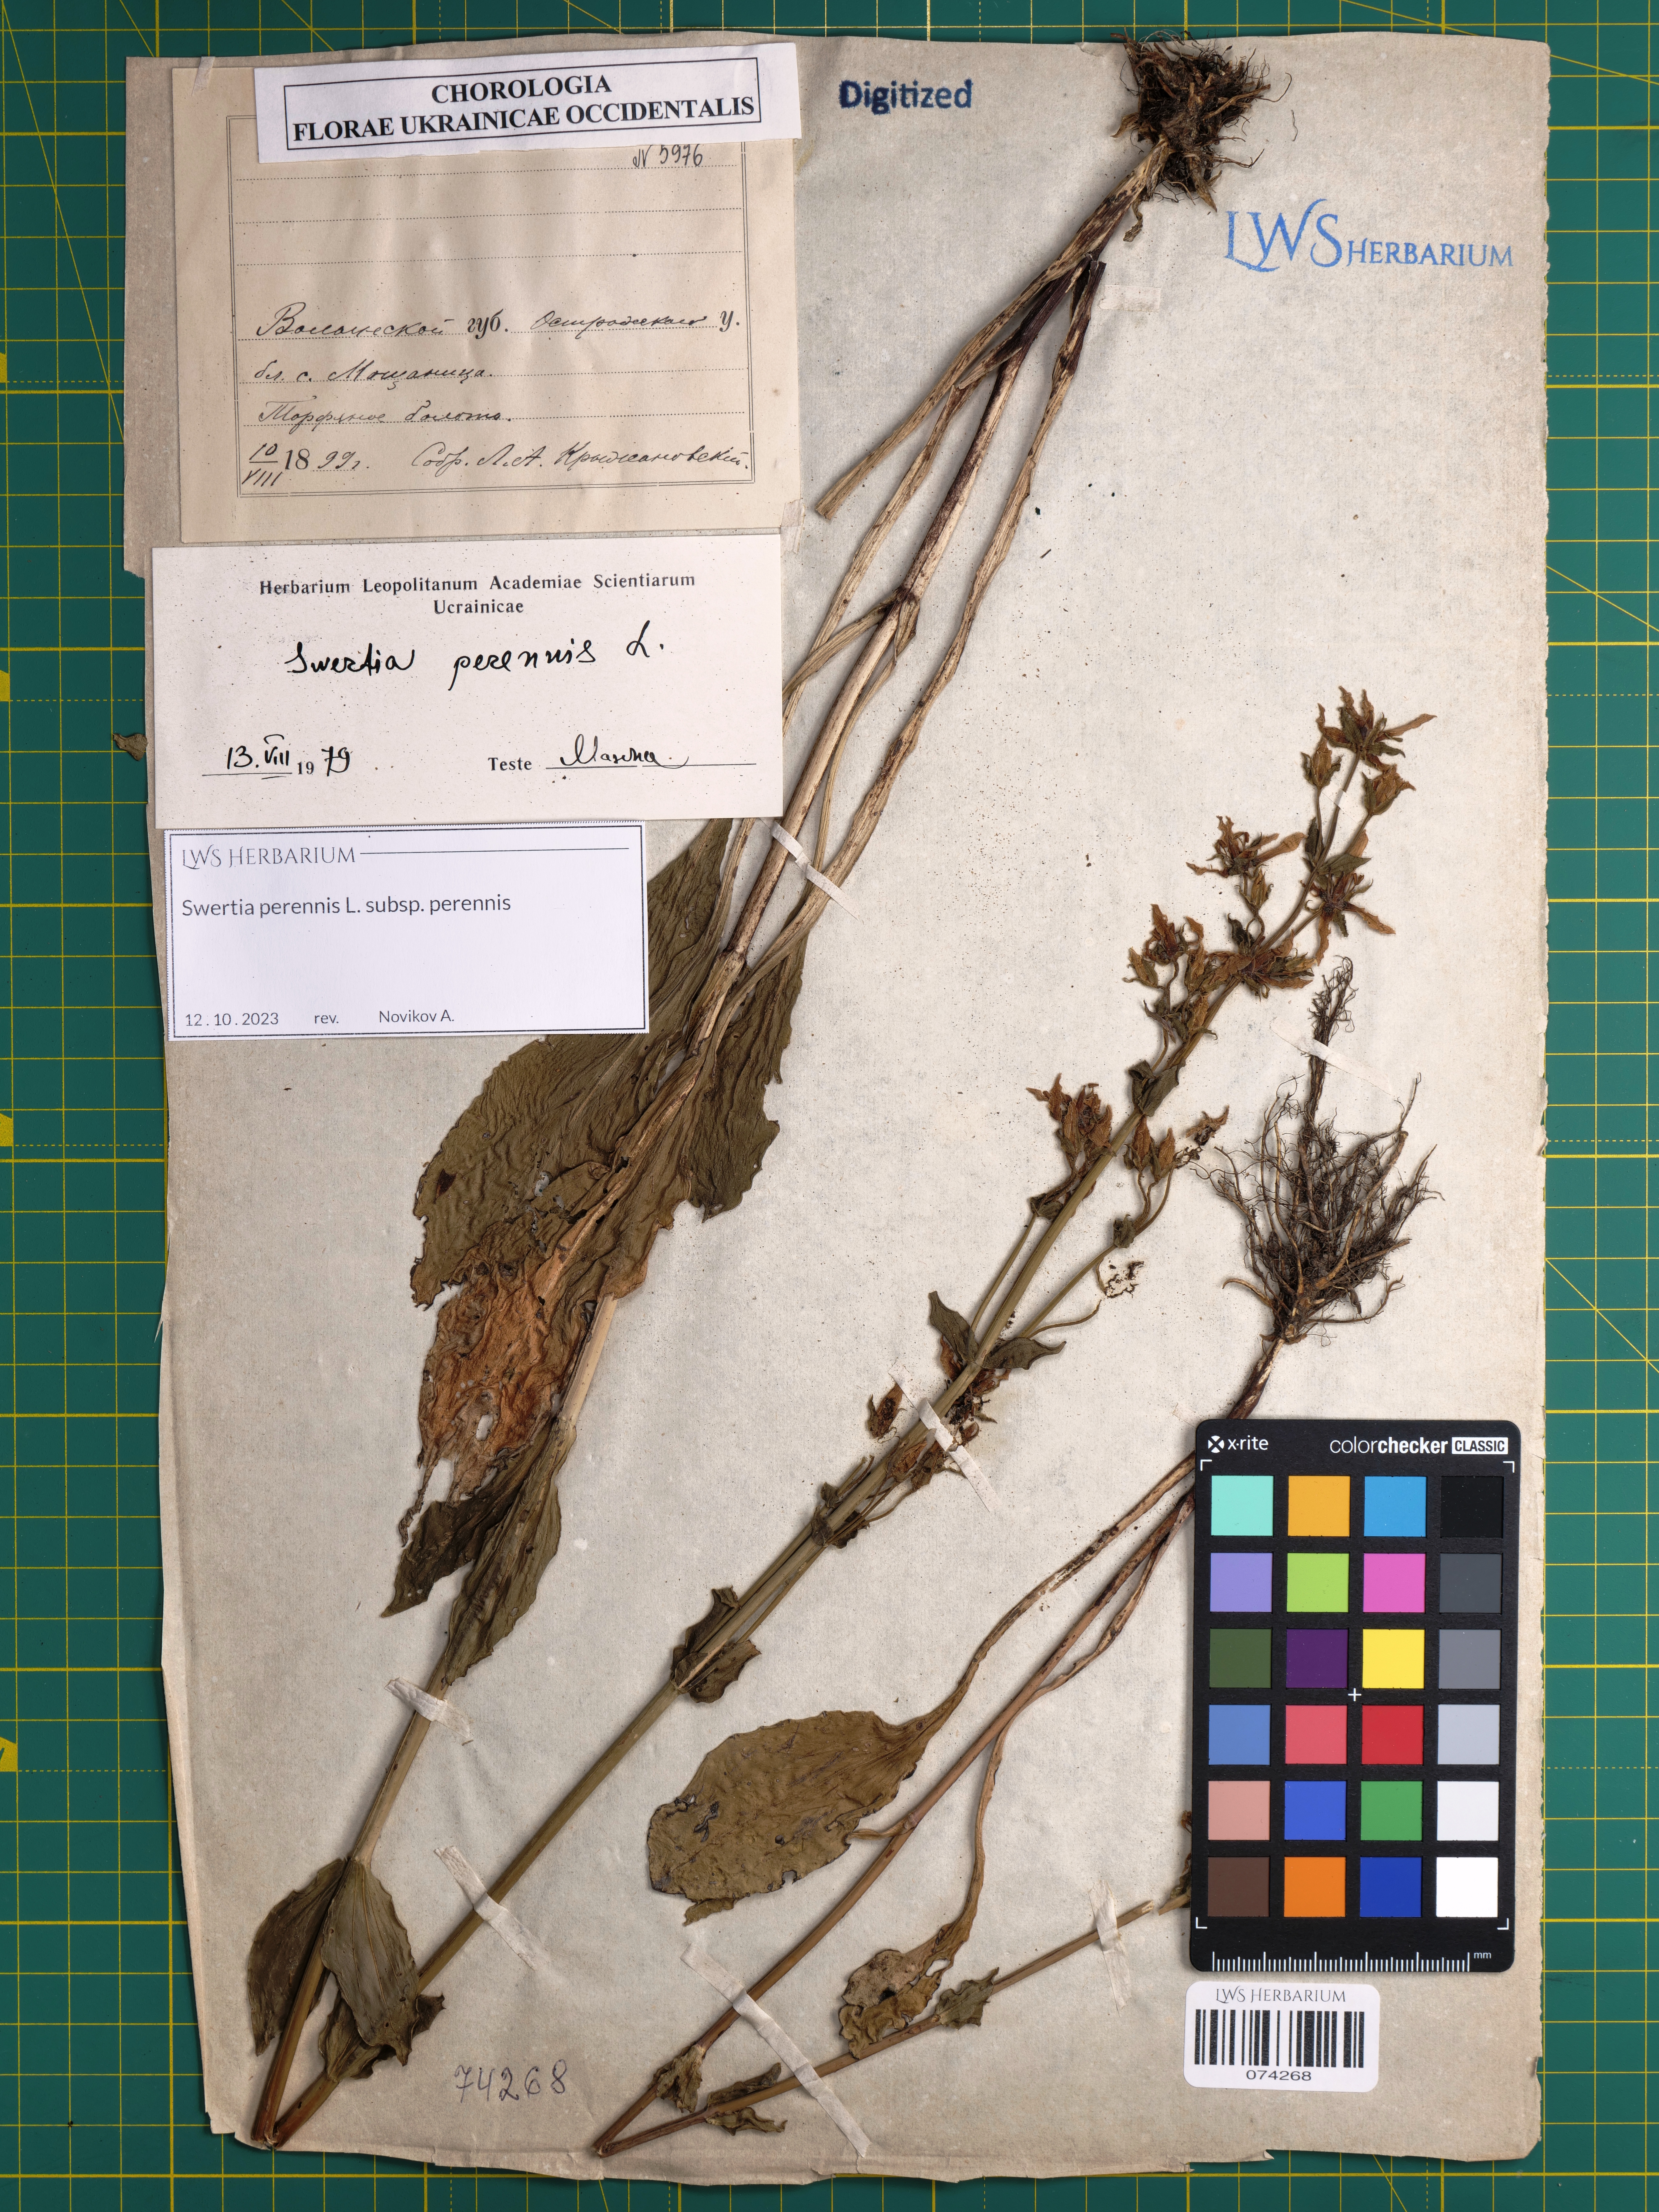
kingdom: Plantae
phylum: Tracheophyta
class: Magnoliopsida
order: Gentianales
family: Gentianaceae
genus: Swertia
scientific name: Swertia perennis
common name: Alpine bog swertia
